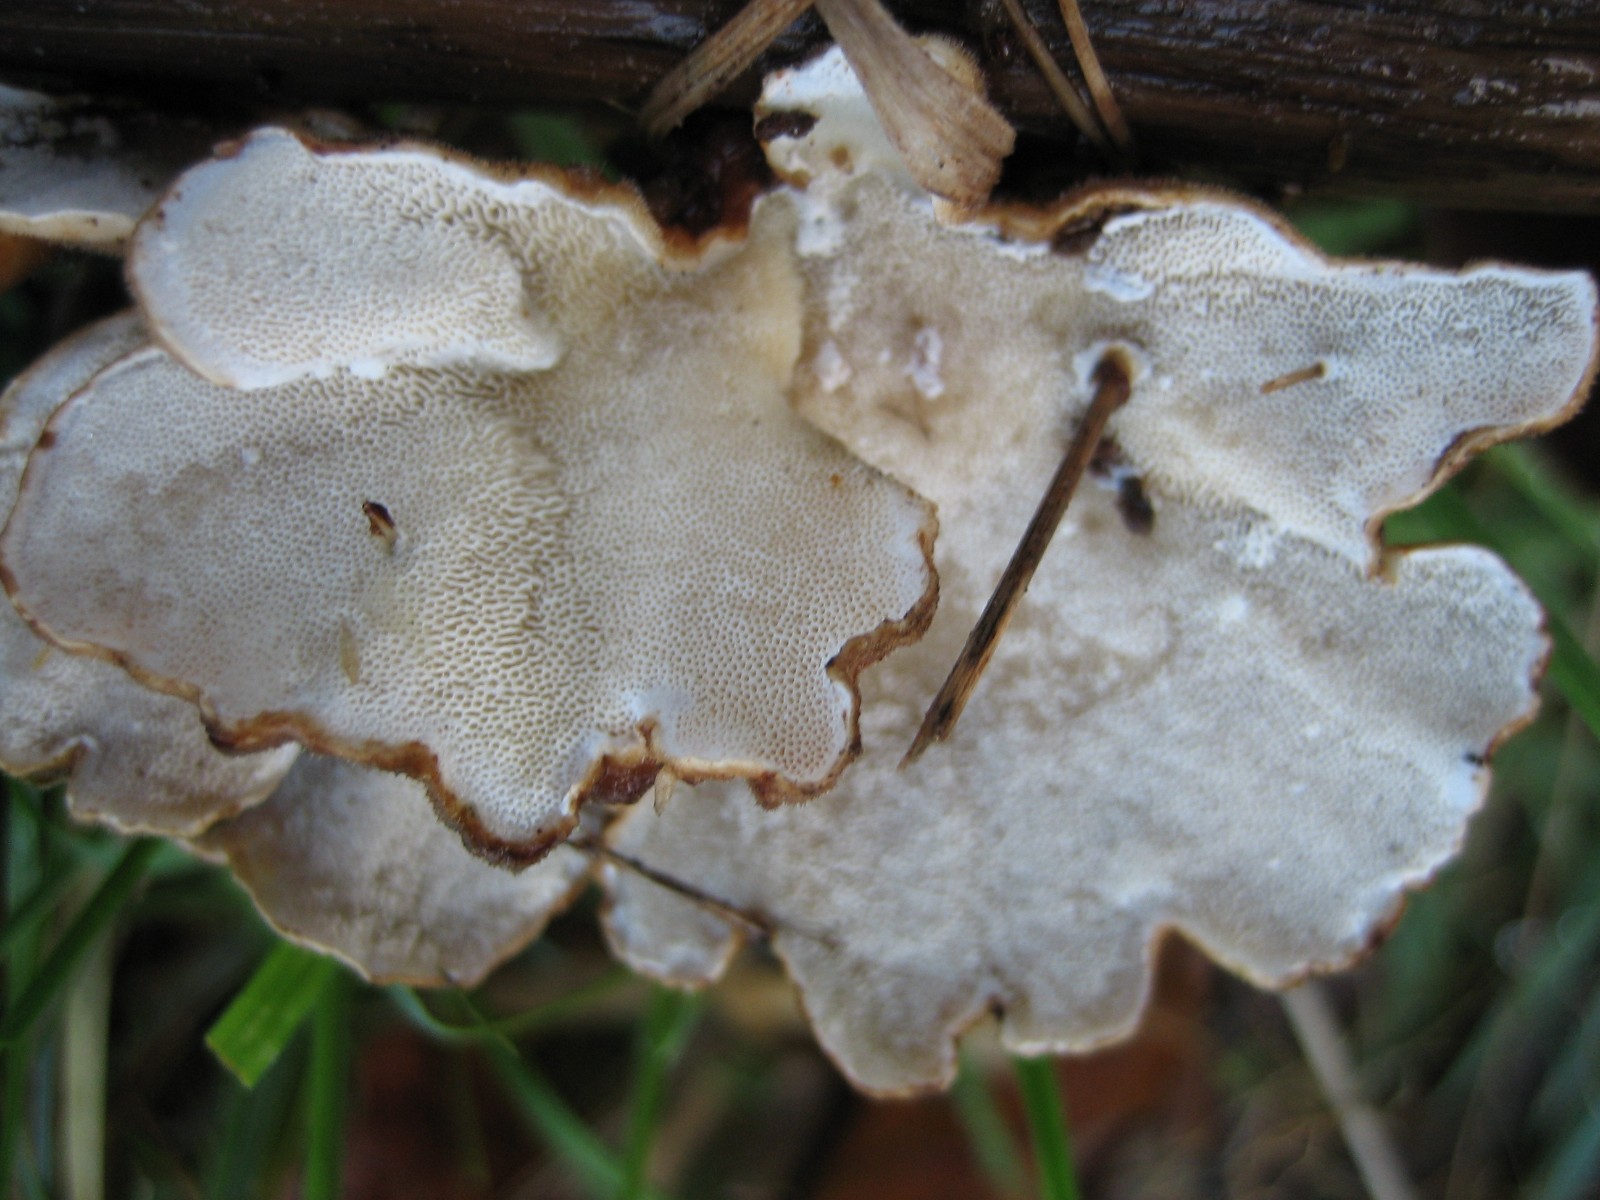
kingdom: Fungi
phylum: Basidiomycota
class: Agaricomycetes
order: Polyporales
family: Polyporaceae
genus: Trametes
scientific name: Trametes versicolor
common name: broget læderporesvamp
